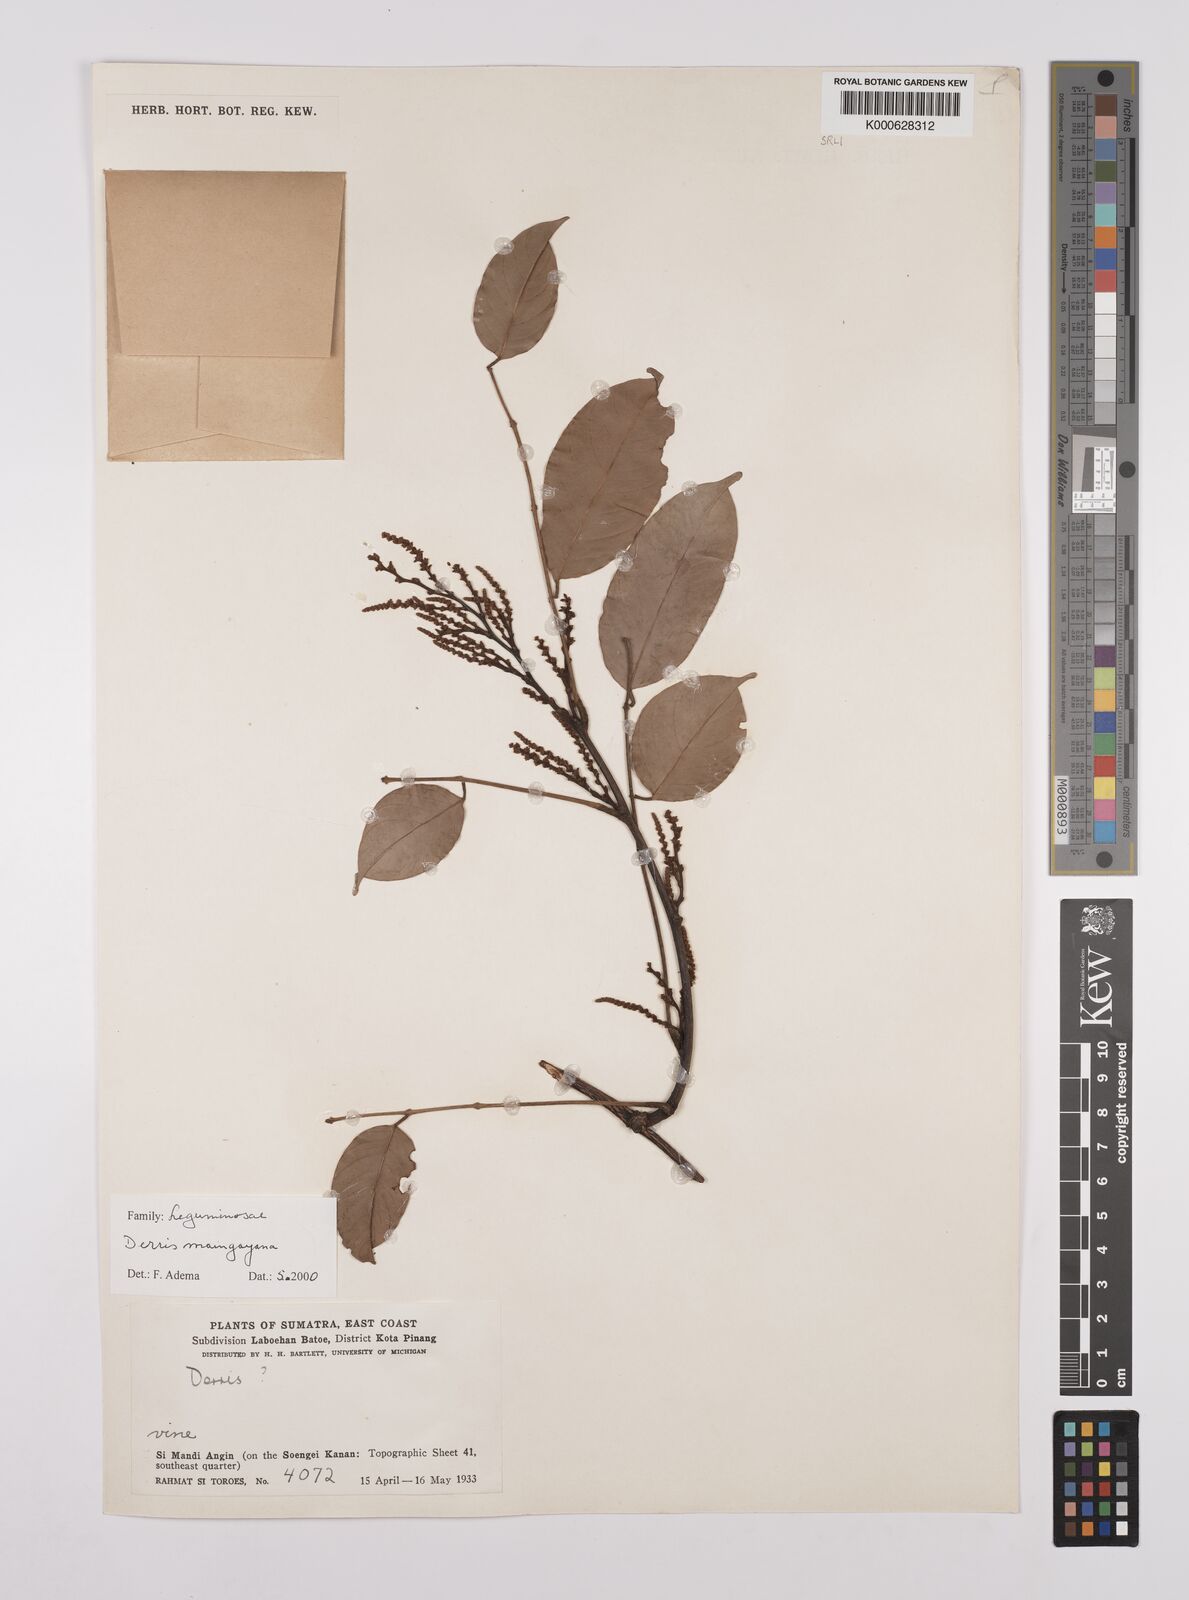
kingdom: Plantae
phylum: Tracheophyta
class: Magnoliopsida
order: Fabales
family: Fabaceae
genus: Derris
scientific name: Derris amoena
